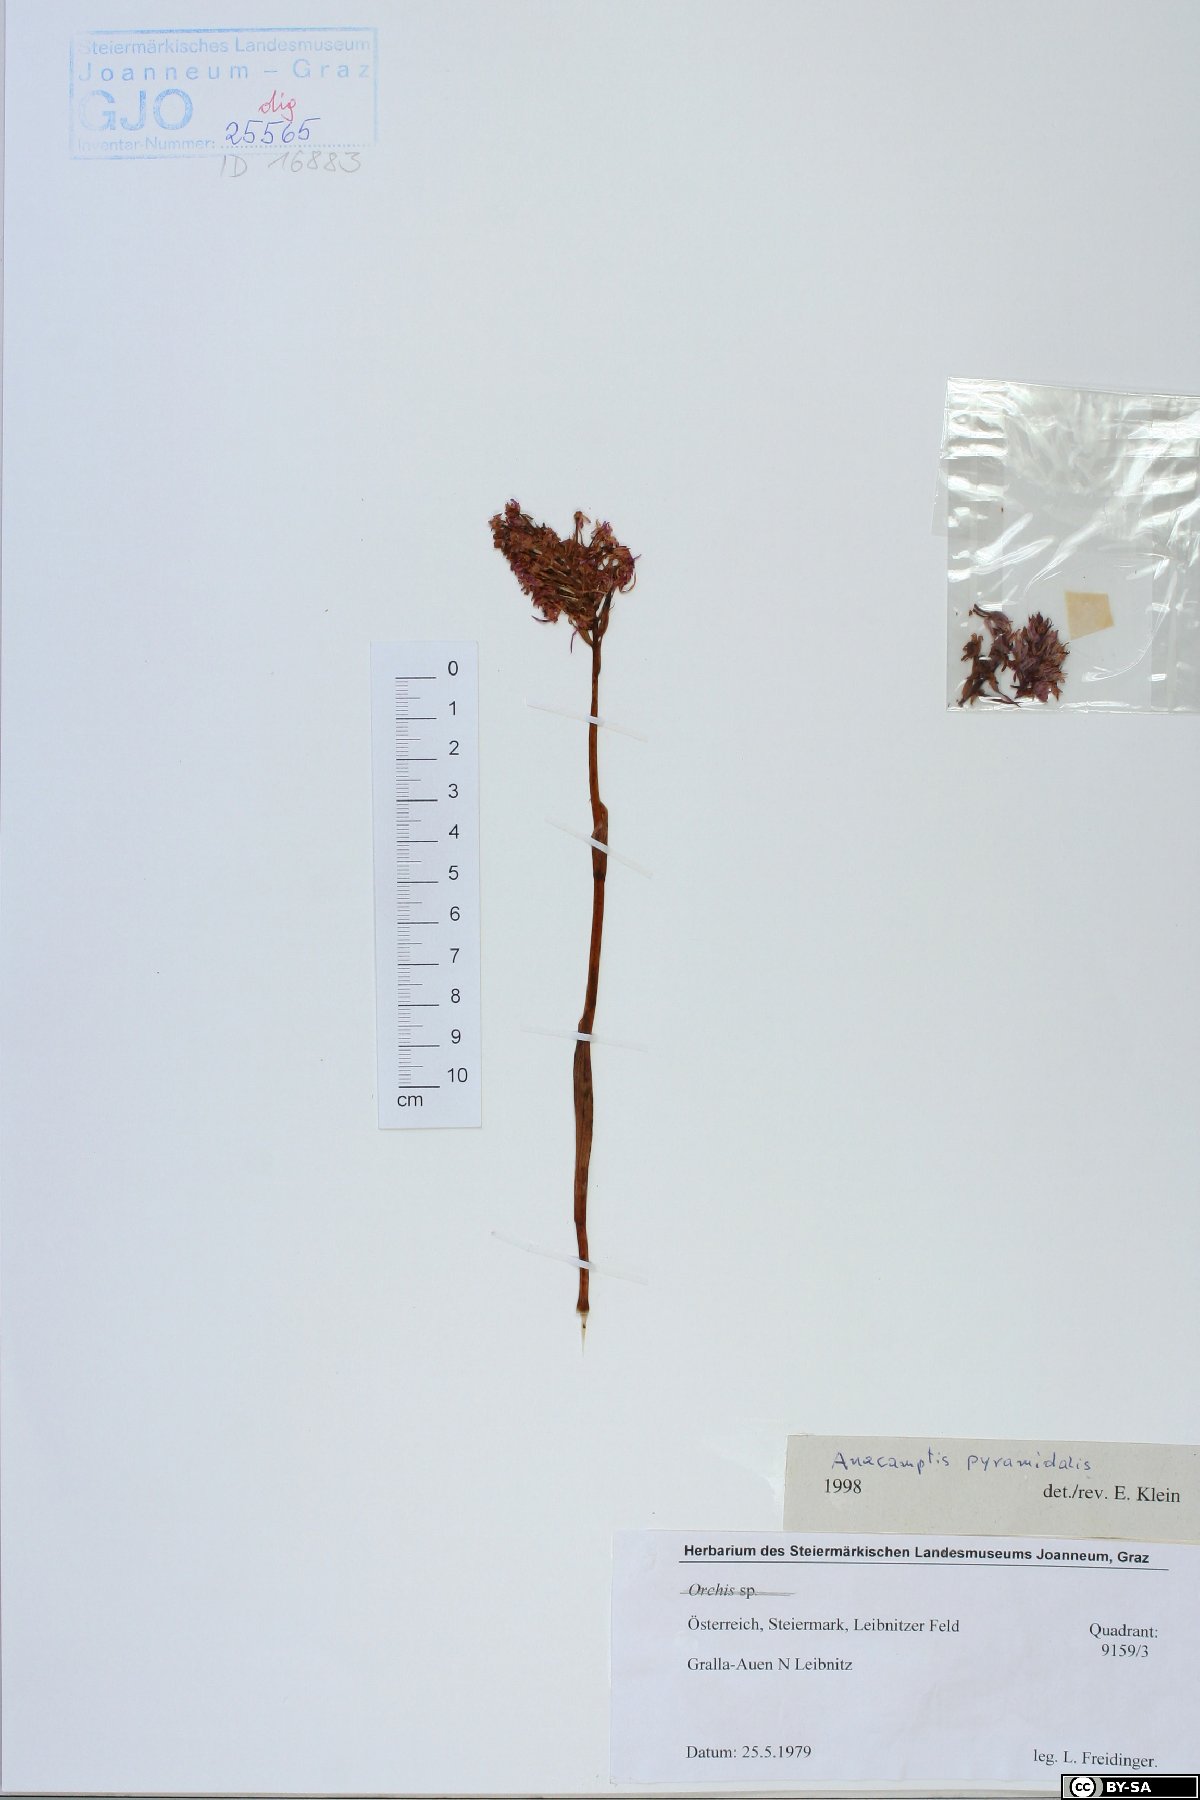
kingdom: Plantae
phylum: Tracheophyta
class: Liliopsida
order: Asparagales
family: Orchidaceae
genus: Anacamptis
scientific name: Anacamptis pyramidalis
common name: Pyramidal orchid
